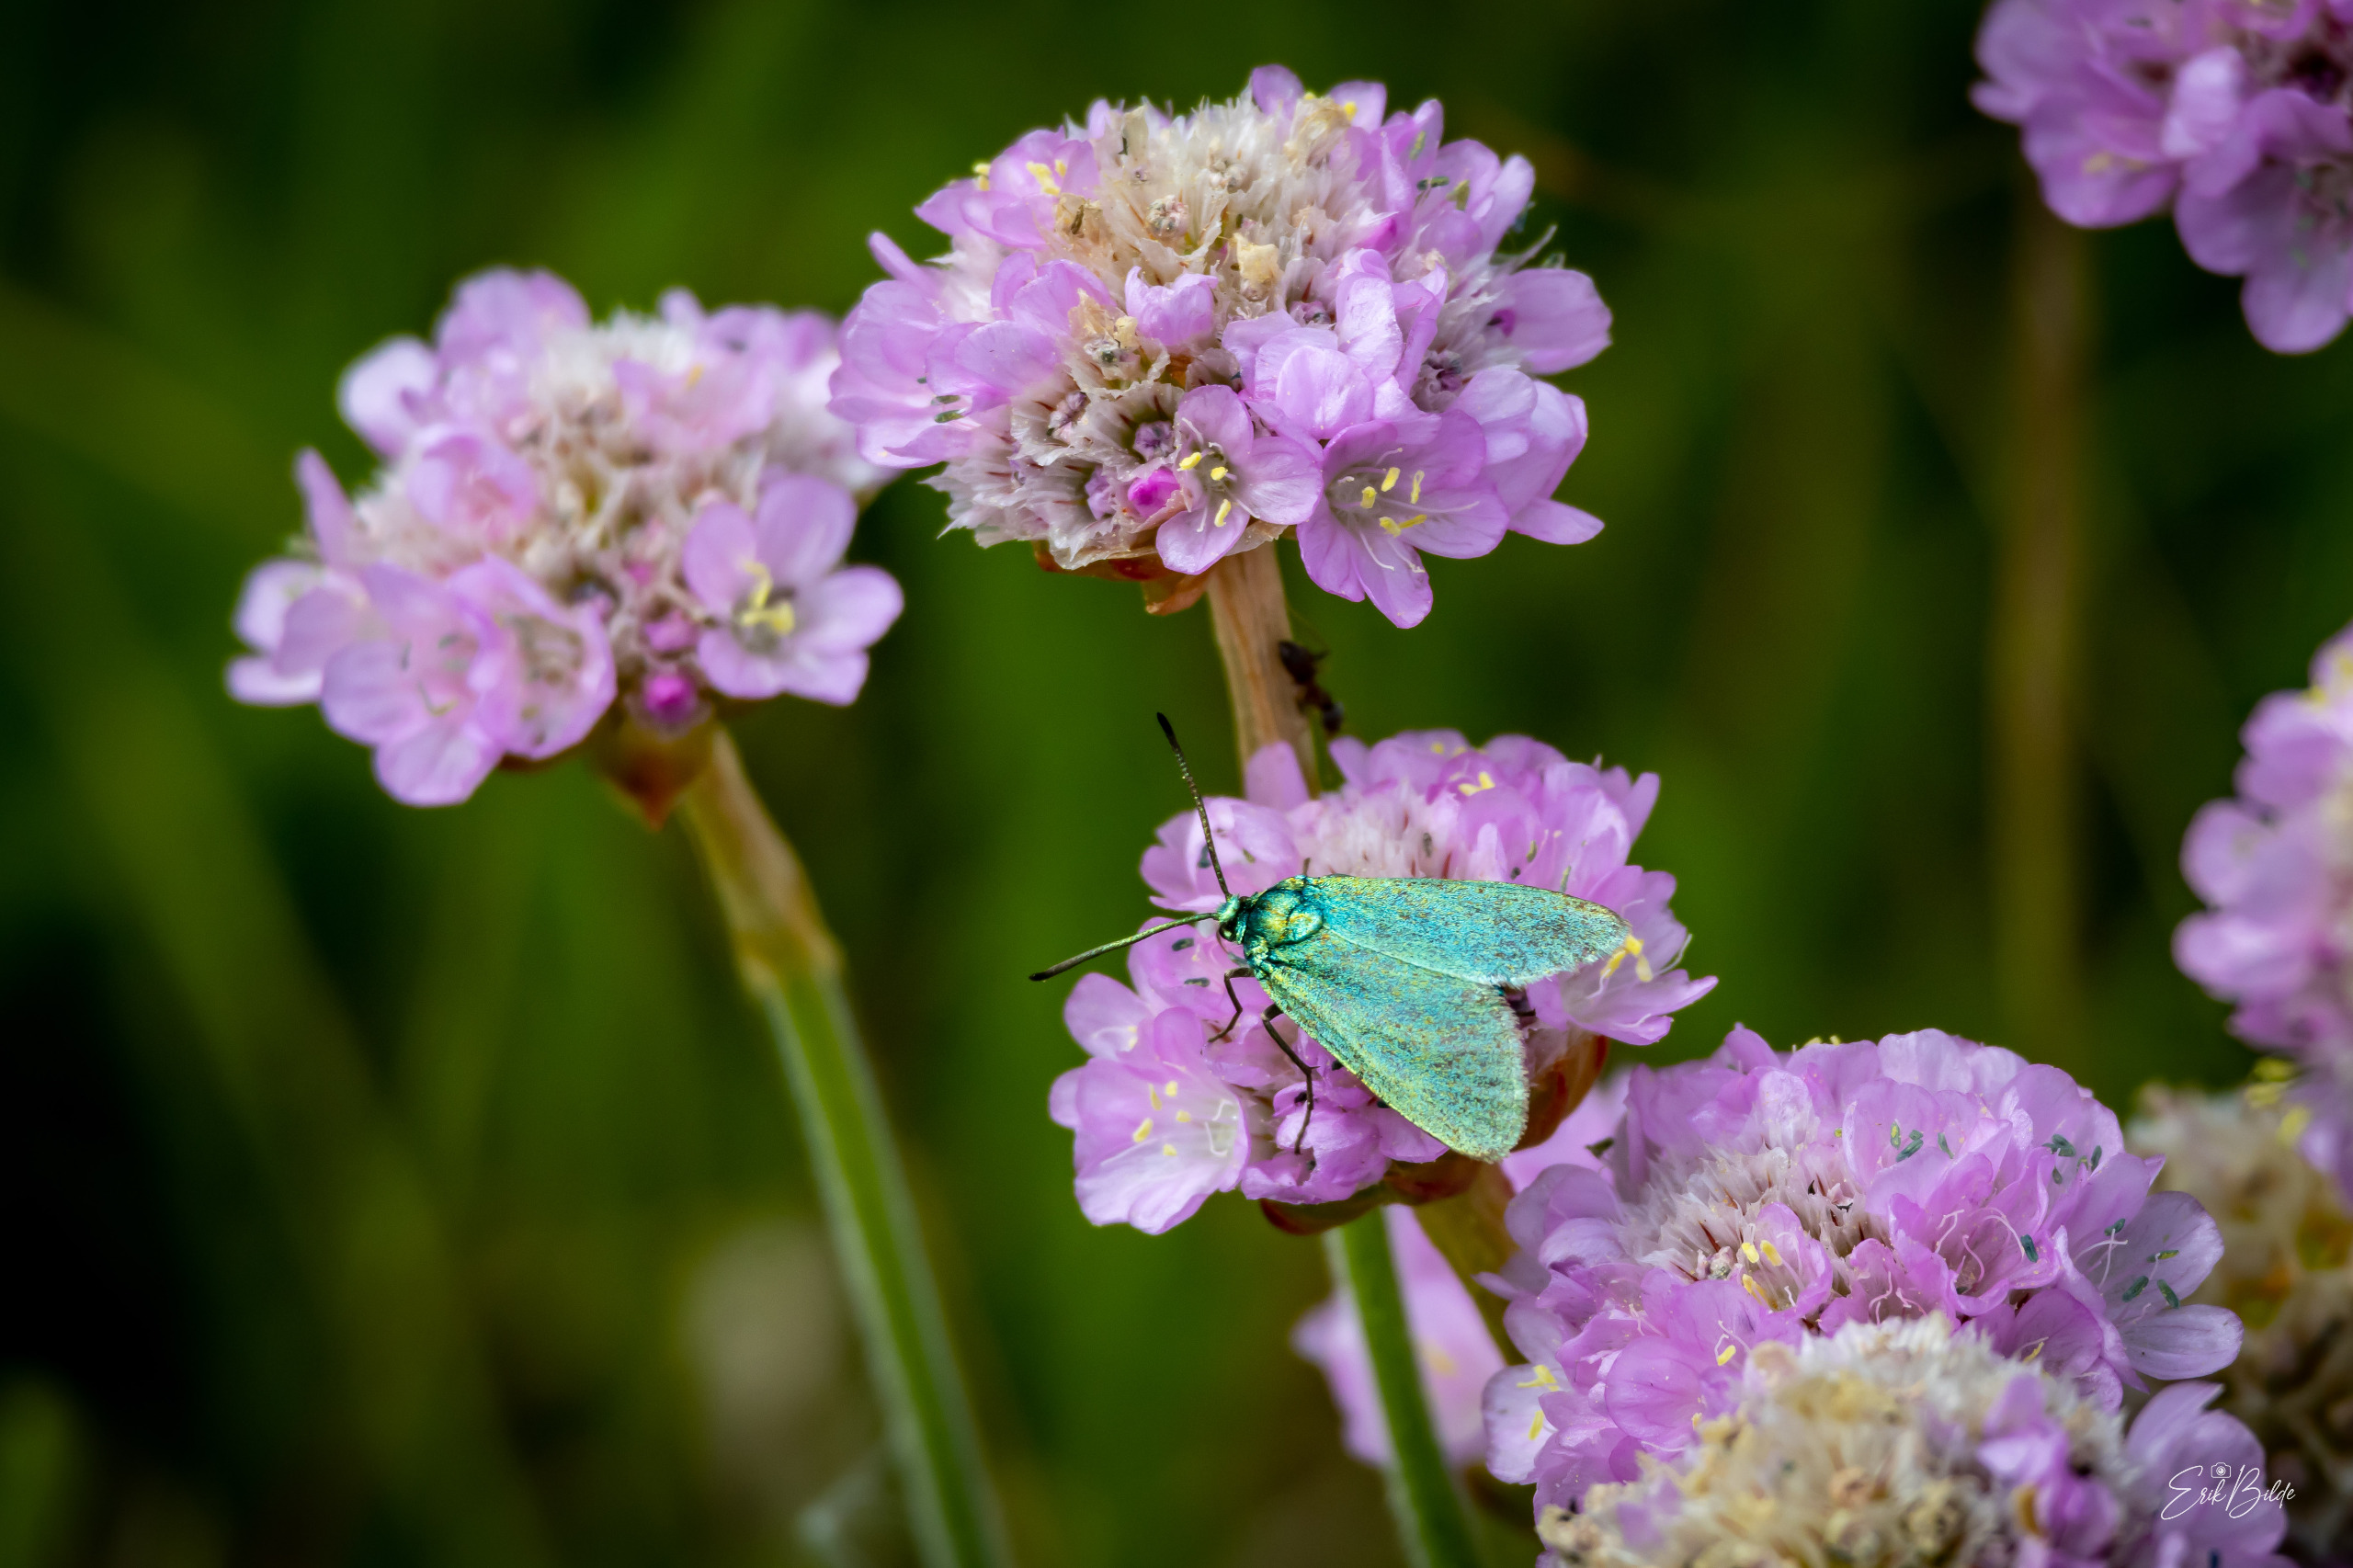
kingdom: Animalia
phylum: Arthropoda
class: Insecta
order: Lepidoptera
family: Zygaenidae
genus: Adscita
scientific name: Adscita statices
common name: Metalvinge
